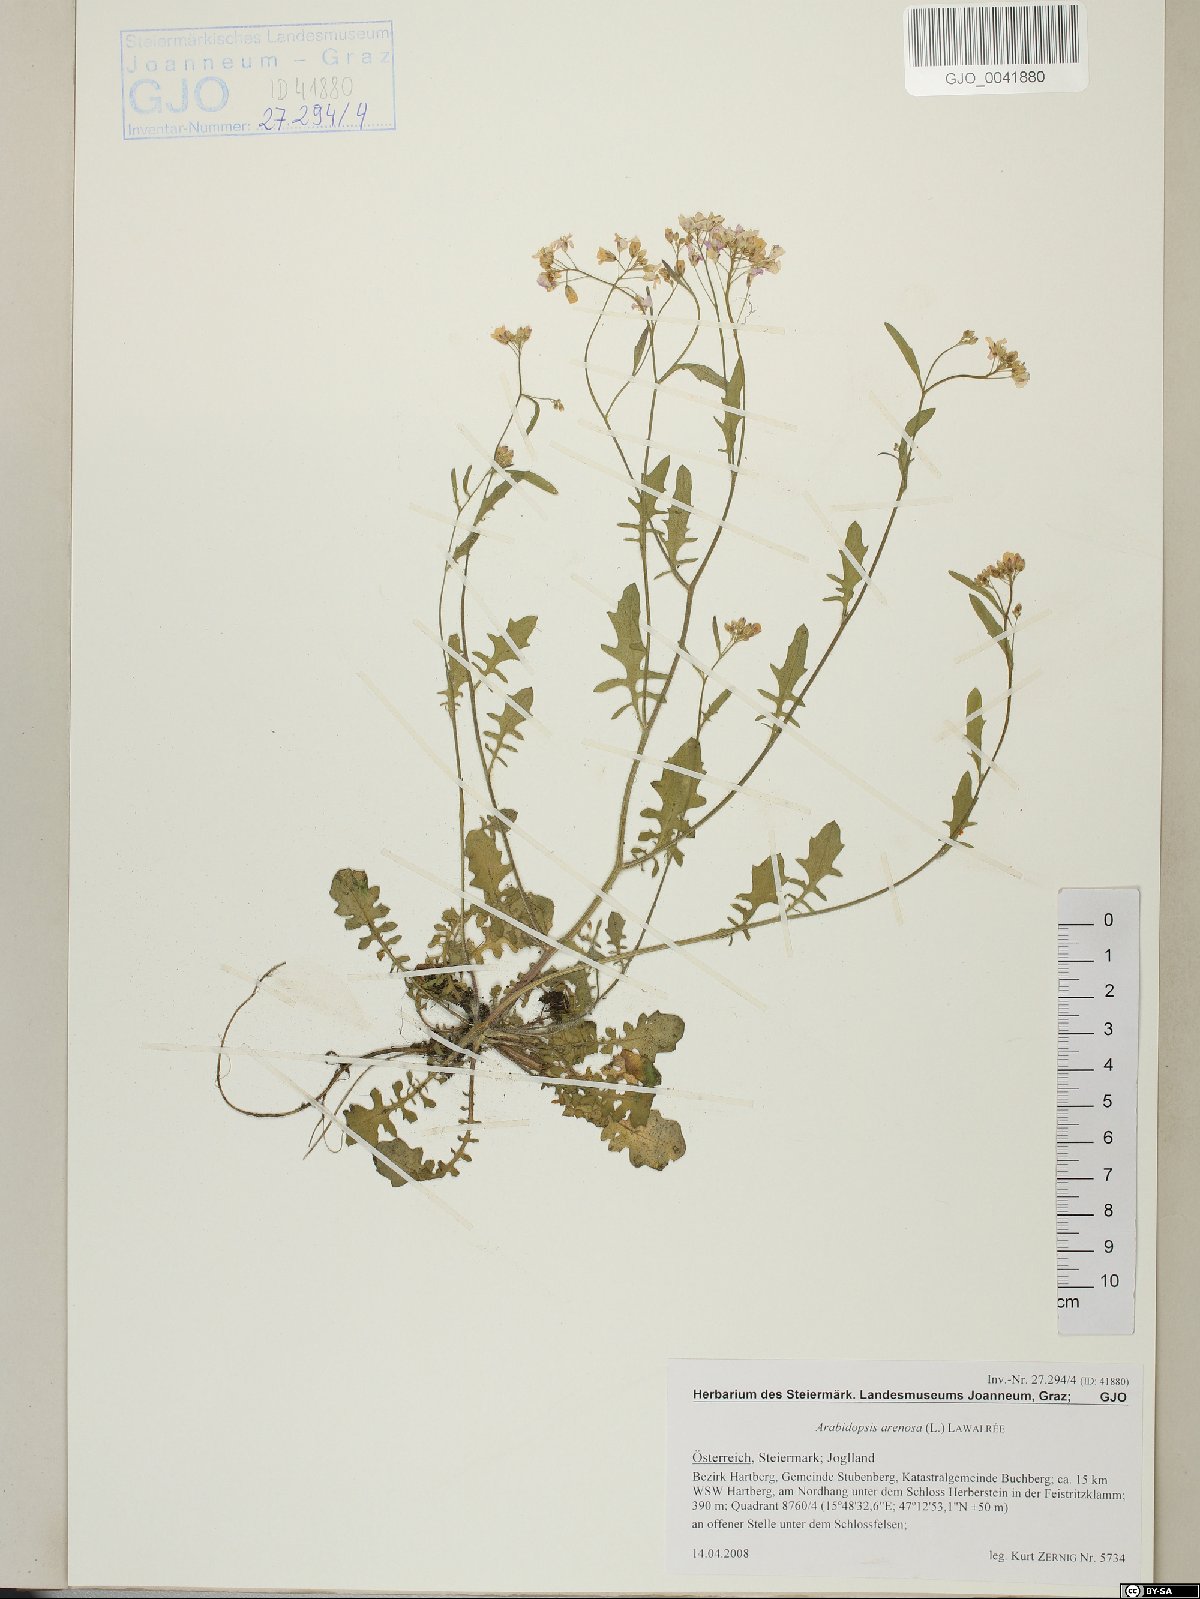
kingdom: Plantae
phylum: Tracheophyta
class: Magnoliopsida
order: Brassicales
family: Brassicaceae
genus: Arabidopsis
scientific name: Arabidopsis arenosa
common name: Sand rock-cress
